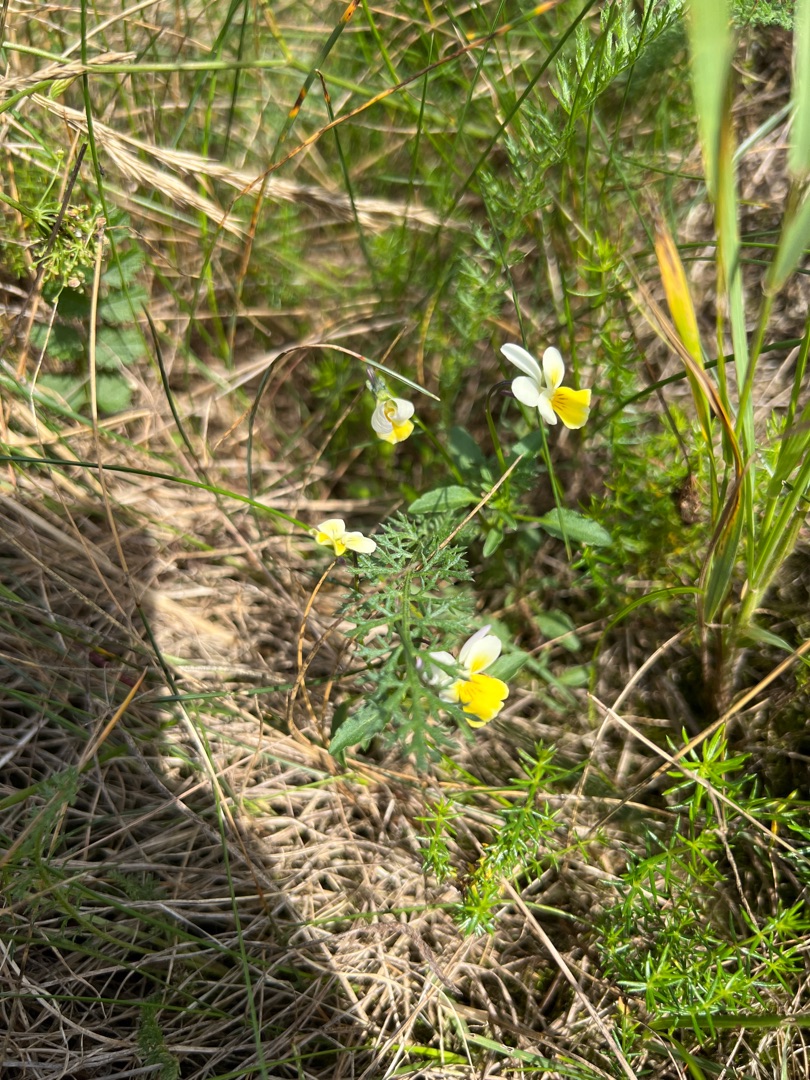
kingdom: Plantae
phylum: Tracheophyta
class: Magnoliopsida
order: Malpighiales
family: Violaceae
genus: Viola
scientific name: Viola arvensis
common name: Ager-stedmoderblomst
